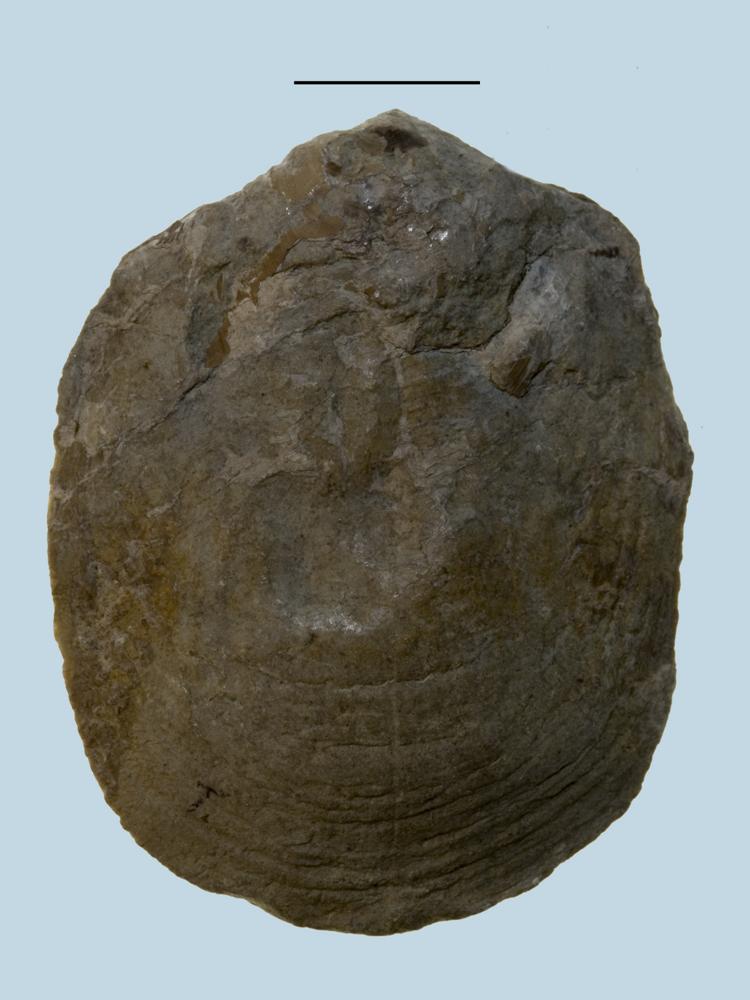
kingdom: Animalia
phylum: Brachiopoda
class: Lingulata
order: Lingulida
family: Pseudolingulidae
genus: Pseudolingula
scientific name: Pseudolingula Crania quadrata
